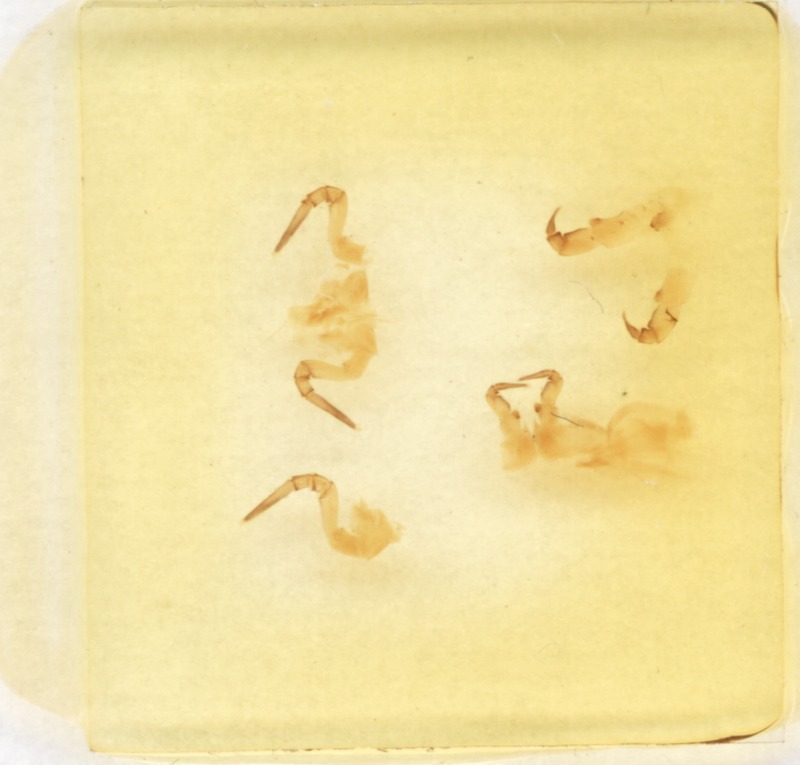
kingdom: Animalia
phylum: Arthropoda
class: Diplopoda
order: Glomerida
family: Glomeridae
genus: Loboglomeris
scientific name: Loboglomeris rugifera
